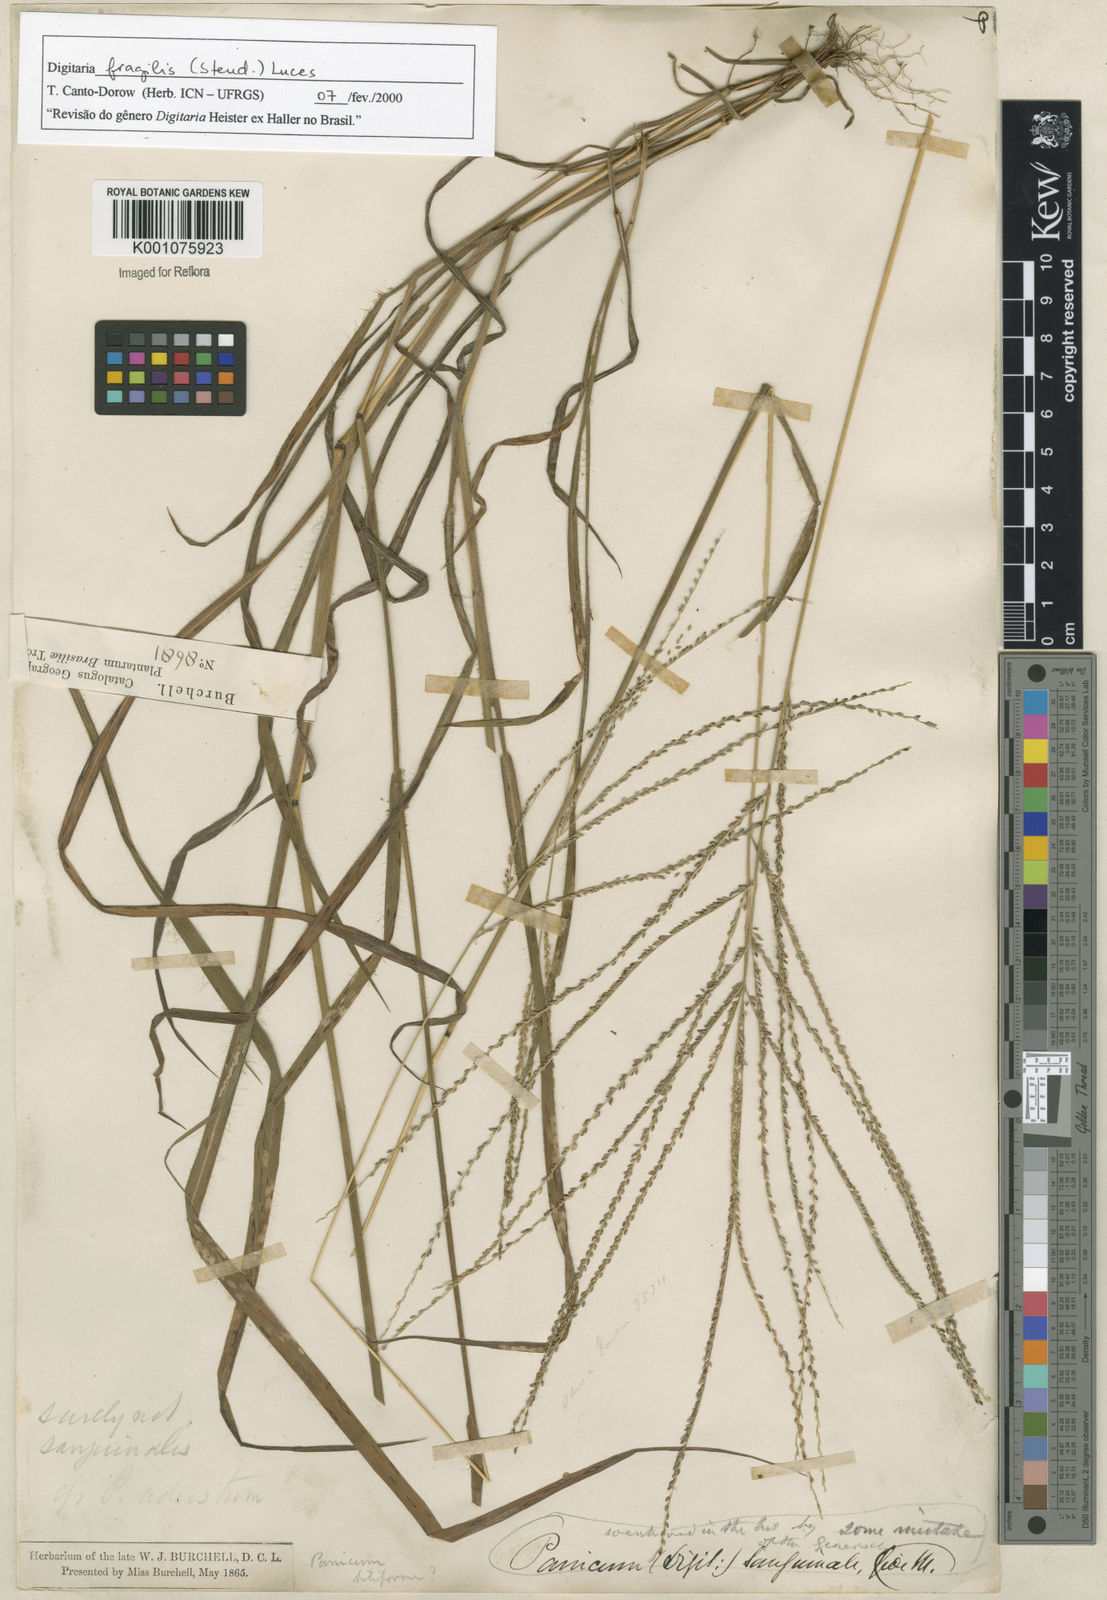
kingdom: Plantae
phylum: Tracheophyta
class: Liliopsida
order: Poales
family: Poaceae
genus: Digitaria
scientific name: Digitaria fragilis
